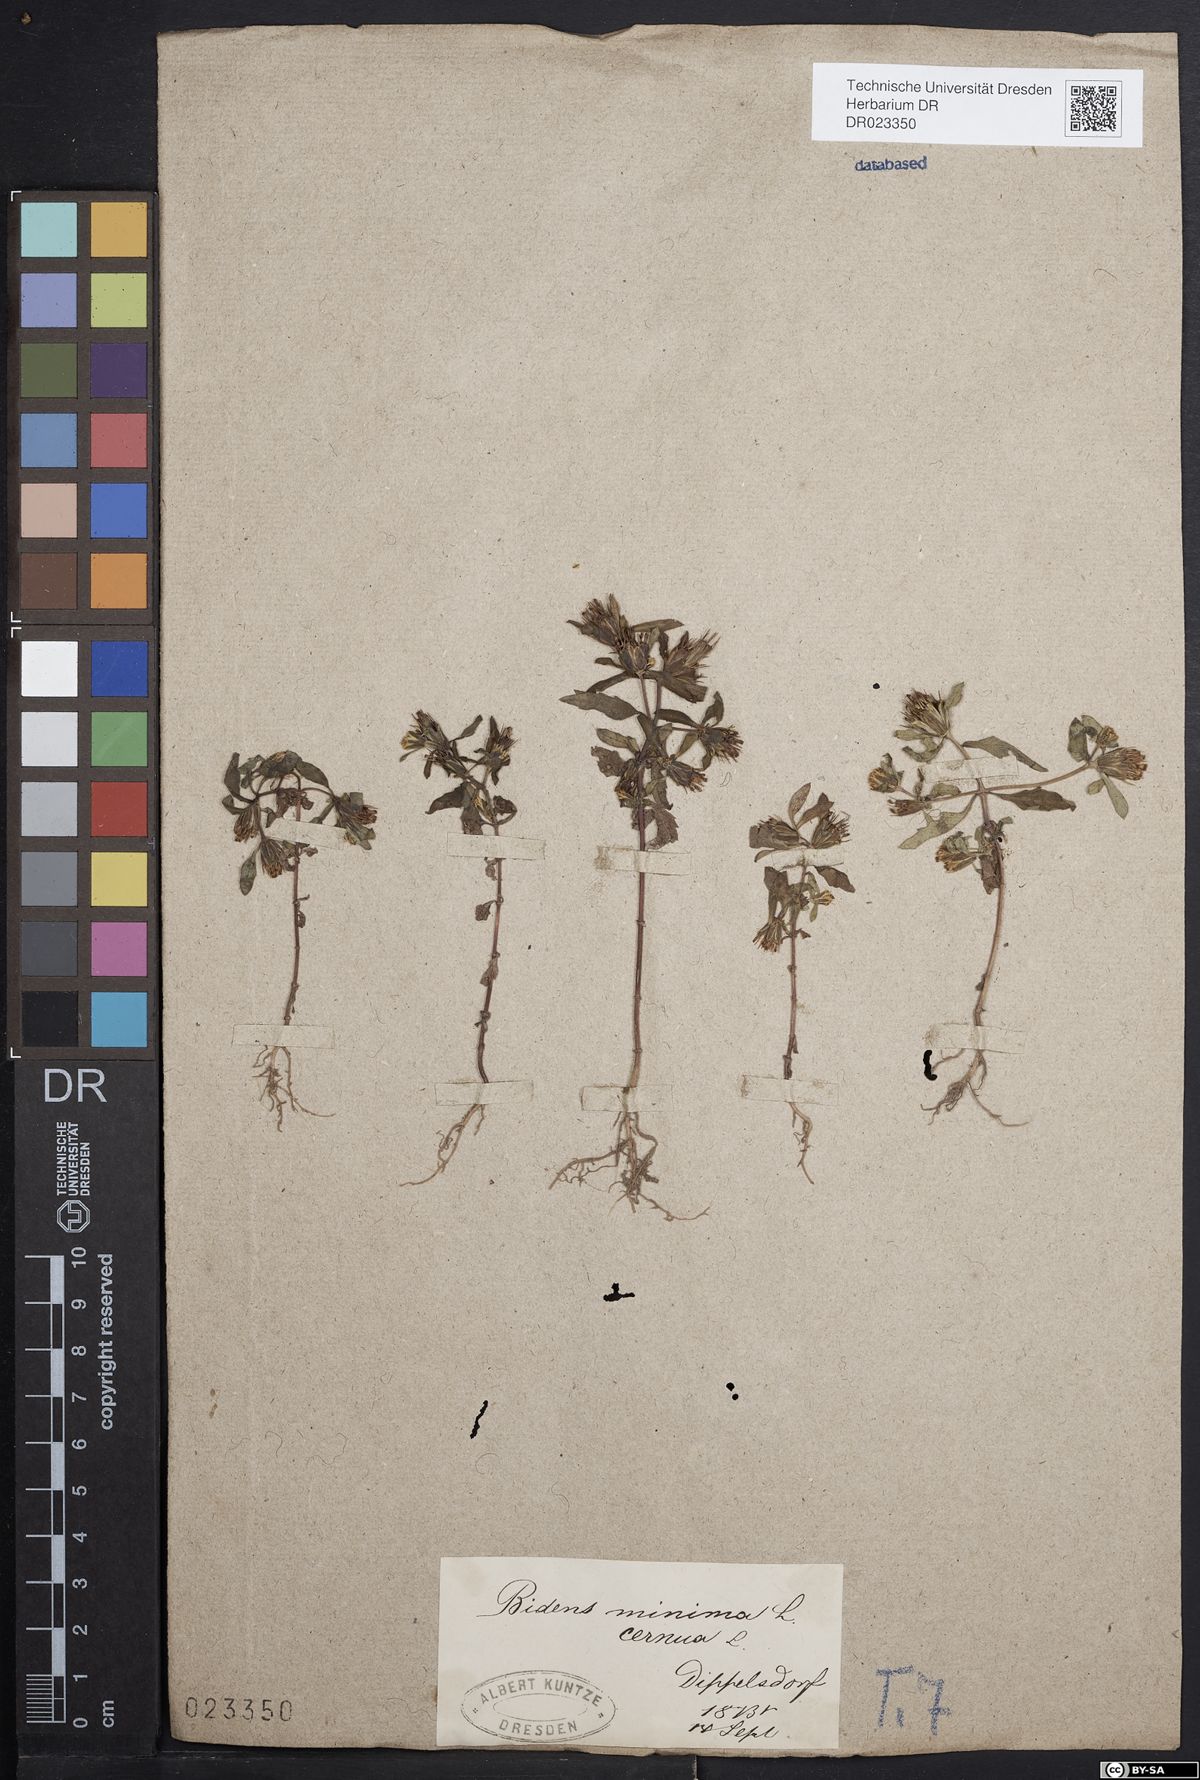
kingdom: Plantae
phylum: Tracheophyta
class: Magnoliopsida
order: Asterales
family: Asteraceae
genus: Bidens
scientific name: Bidens cernua
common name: Nodding bur-marigold
